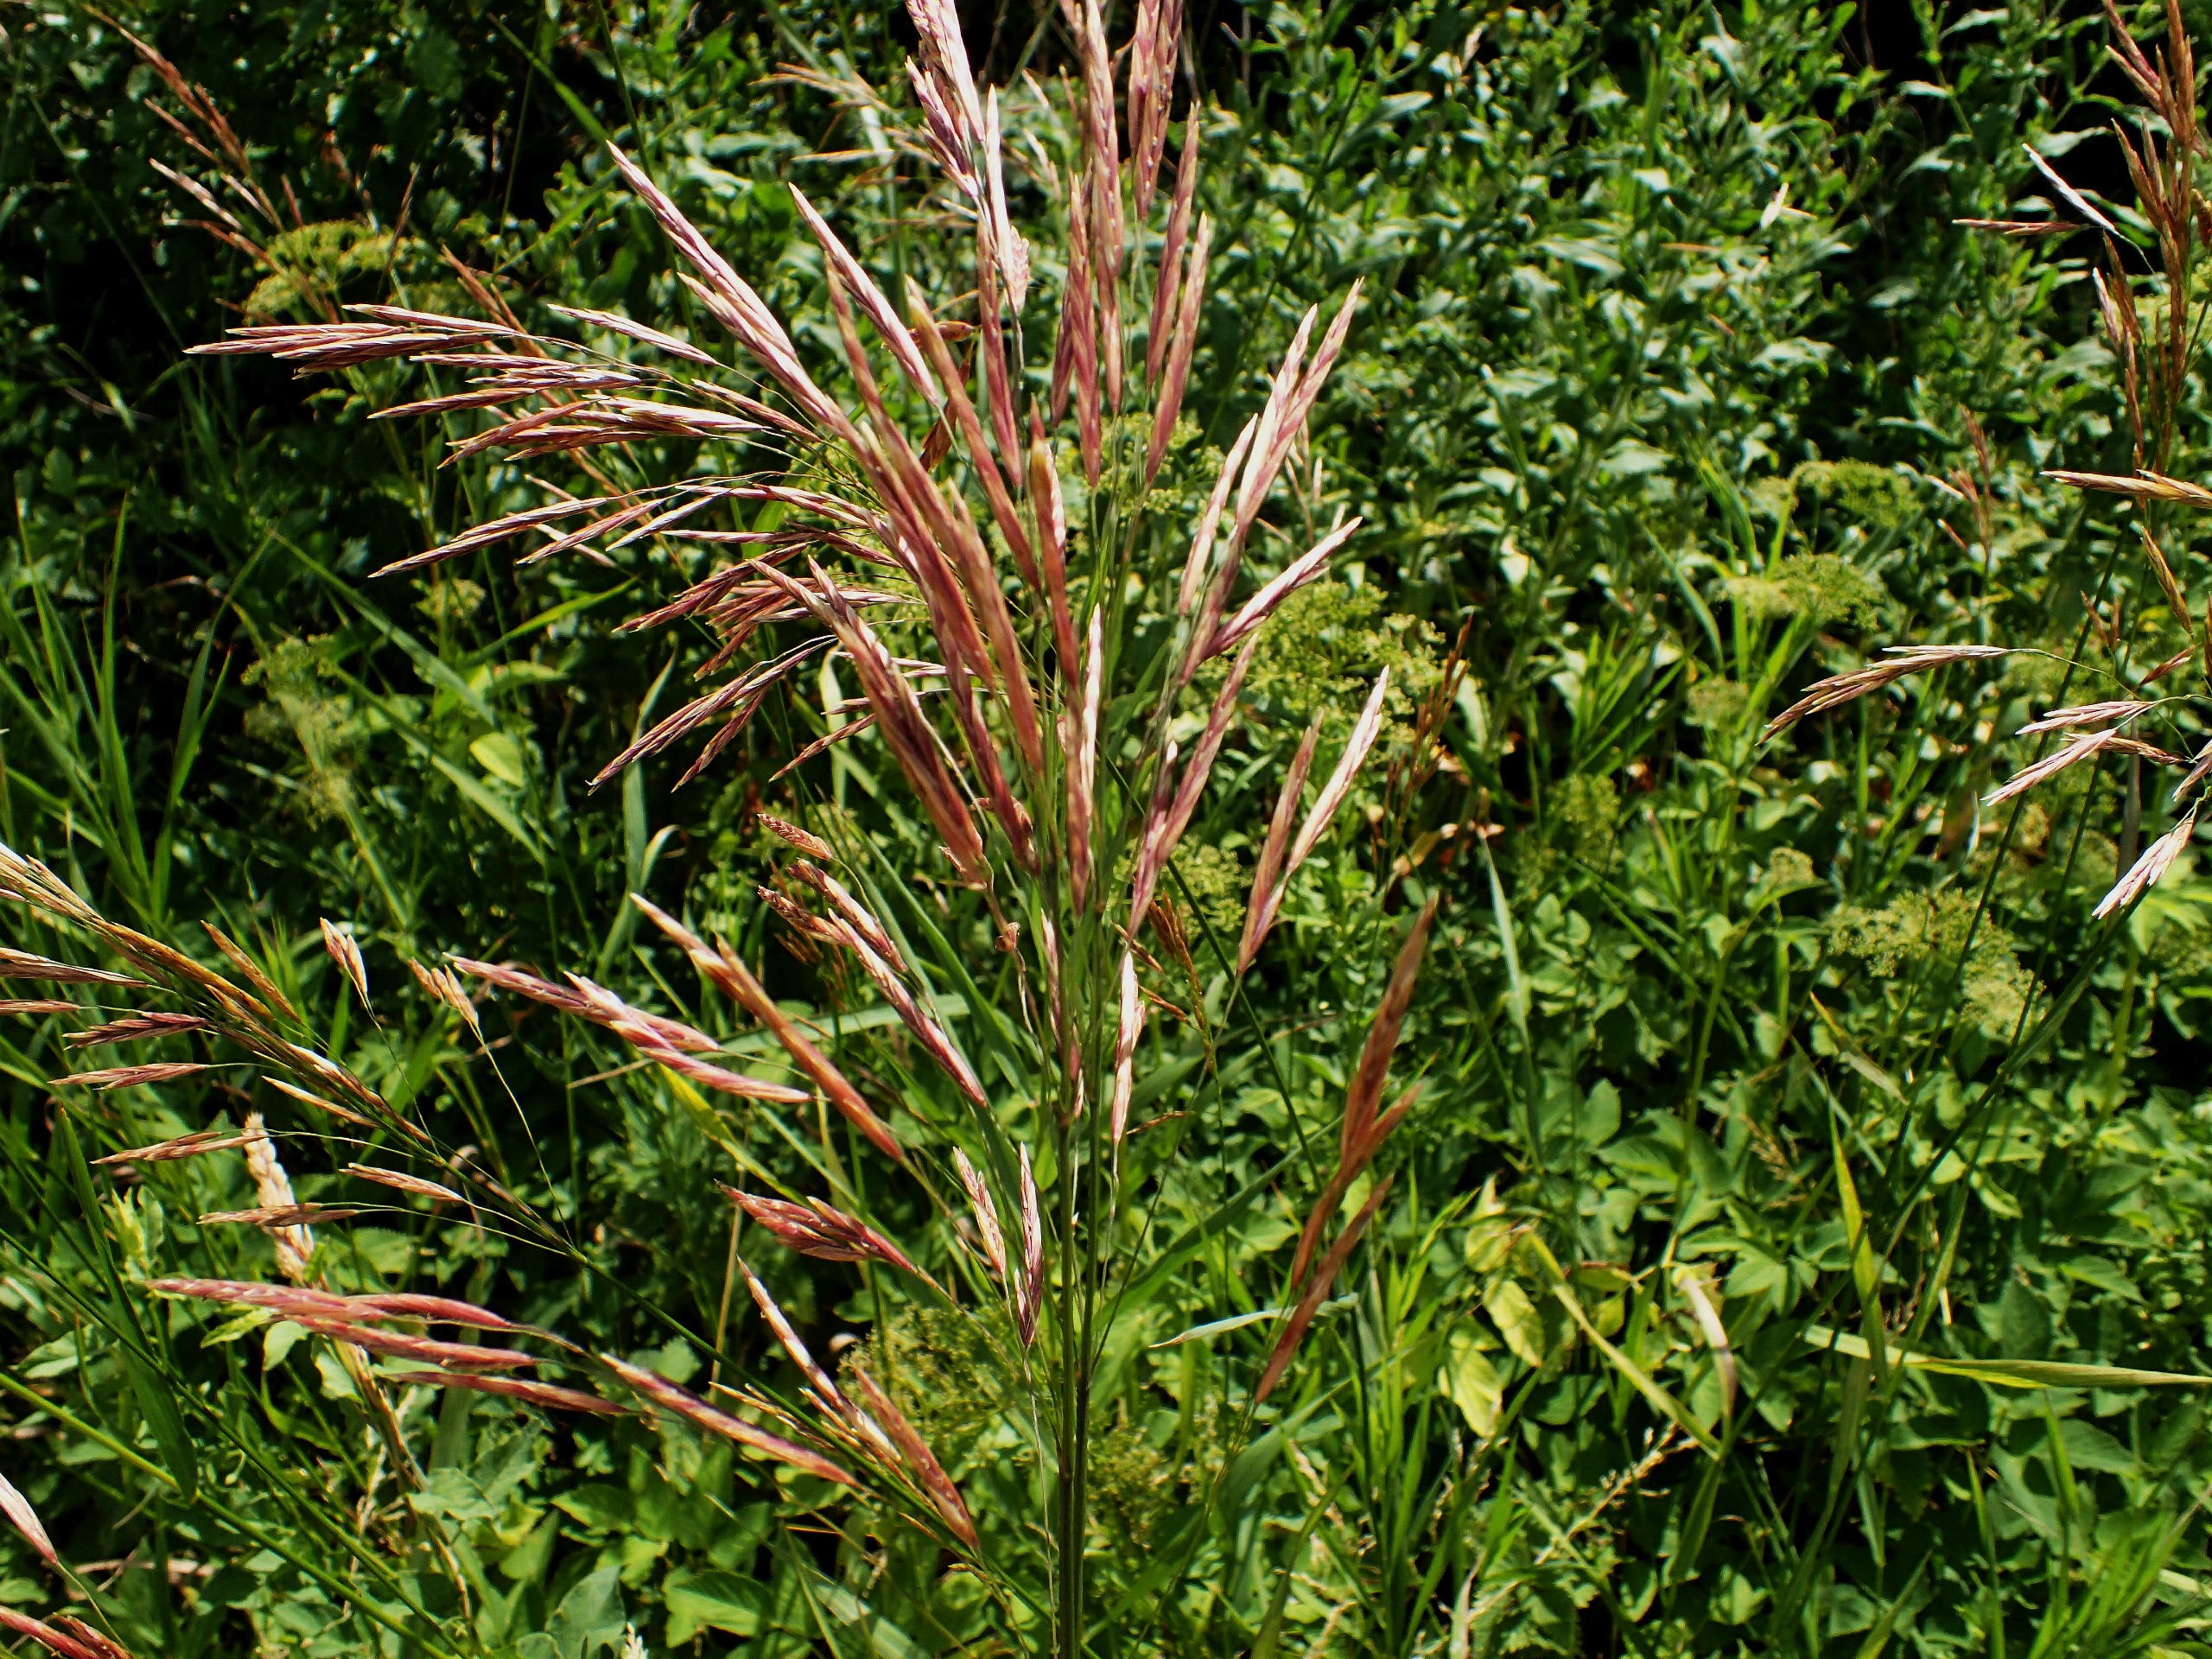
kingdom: Plantae
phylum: Tracheophyta
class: Liliopsida
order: Poales
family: Poaceae
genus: Bromus
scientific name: Bromus inermis
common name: Stakløs hejre
